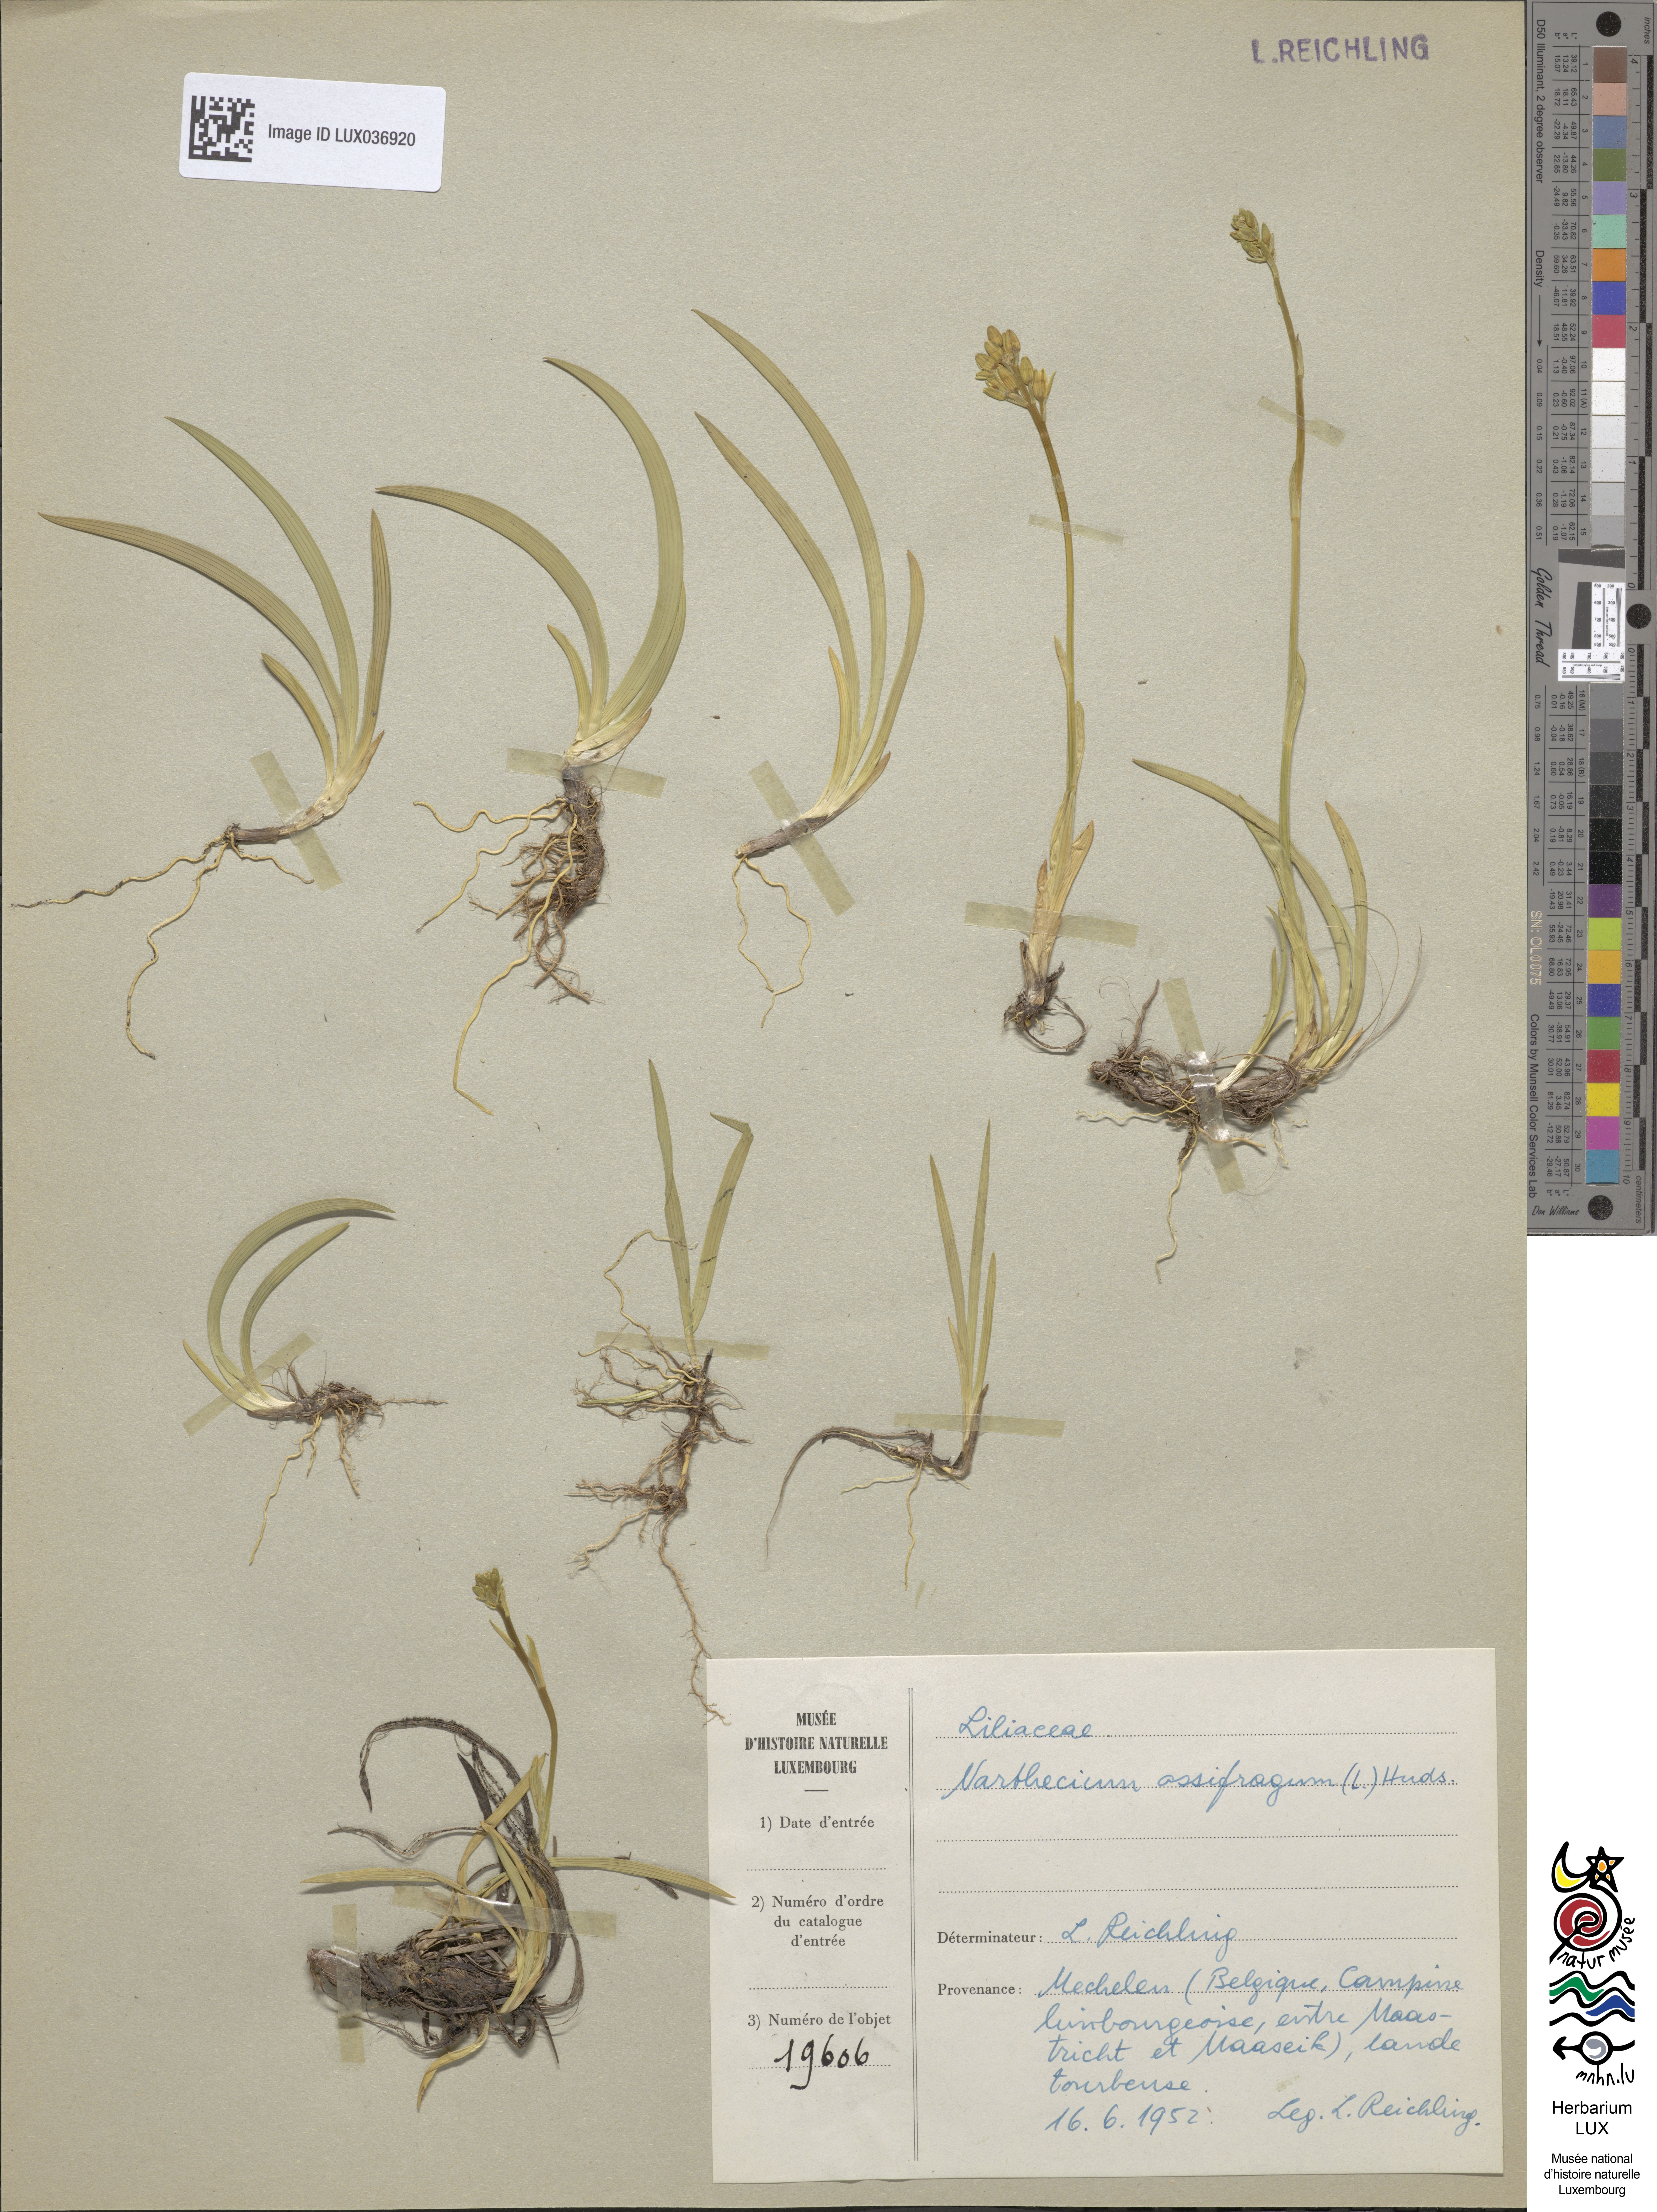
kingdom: Plantae
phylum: Tracheophyta
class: Liliopsida
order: Dioscoreales
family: Nartheciaceae
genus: Narthecium
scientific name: Narthecium ossifragum
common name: Bog asphodel
